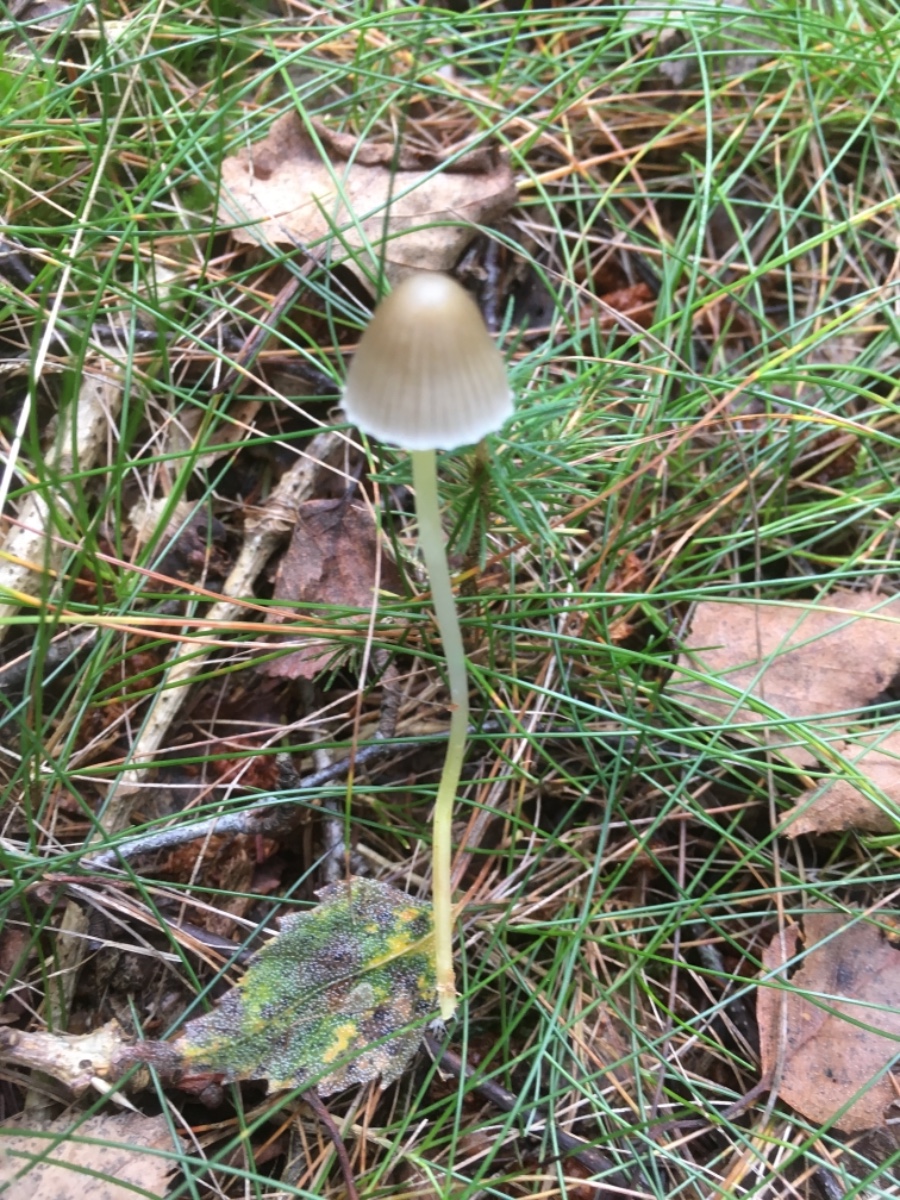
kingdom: Fungi
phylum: Basidiomycota
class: Agaricomycetes
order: Agaricales
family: Mycenaceae
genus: Mycena
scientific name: Mycena epipterygia
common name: gulstokket huesvamp
